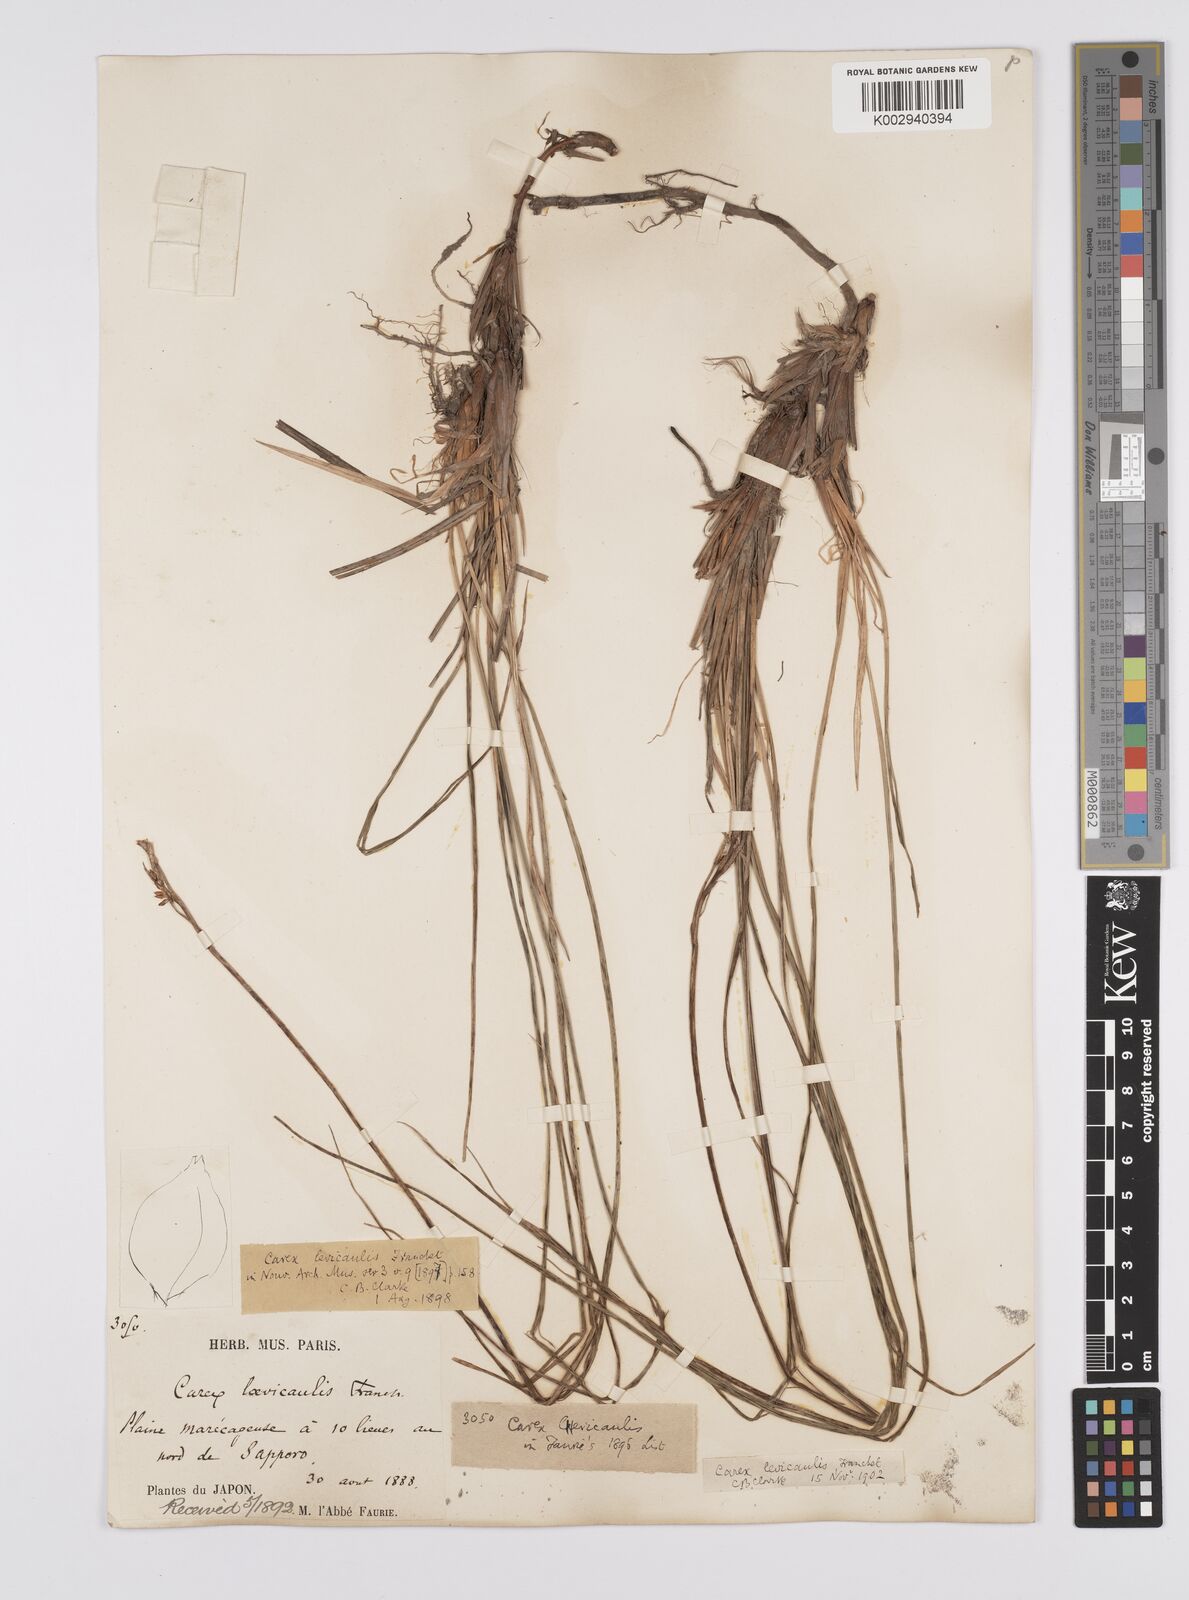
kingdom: Plantae
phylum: Tracheophyta
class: Liliopsida
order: Poales
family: Cyperaceae
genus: Carex
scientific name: Carex middendorffii
